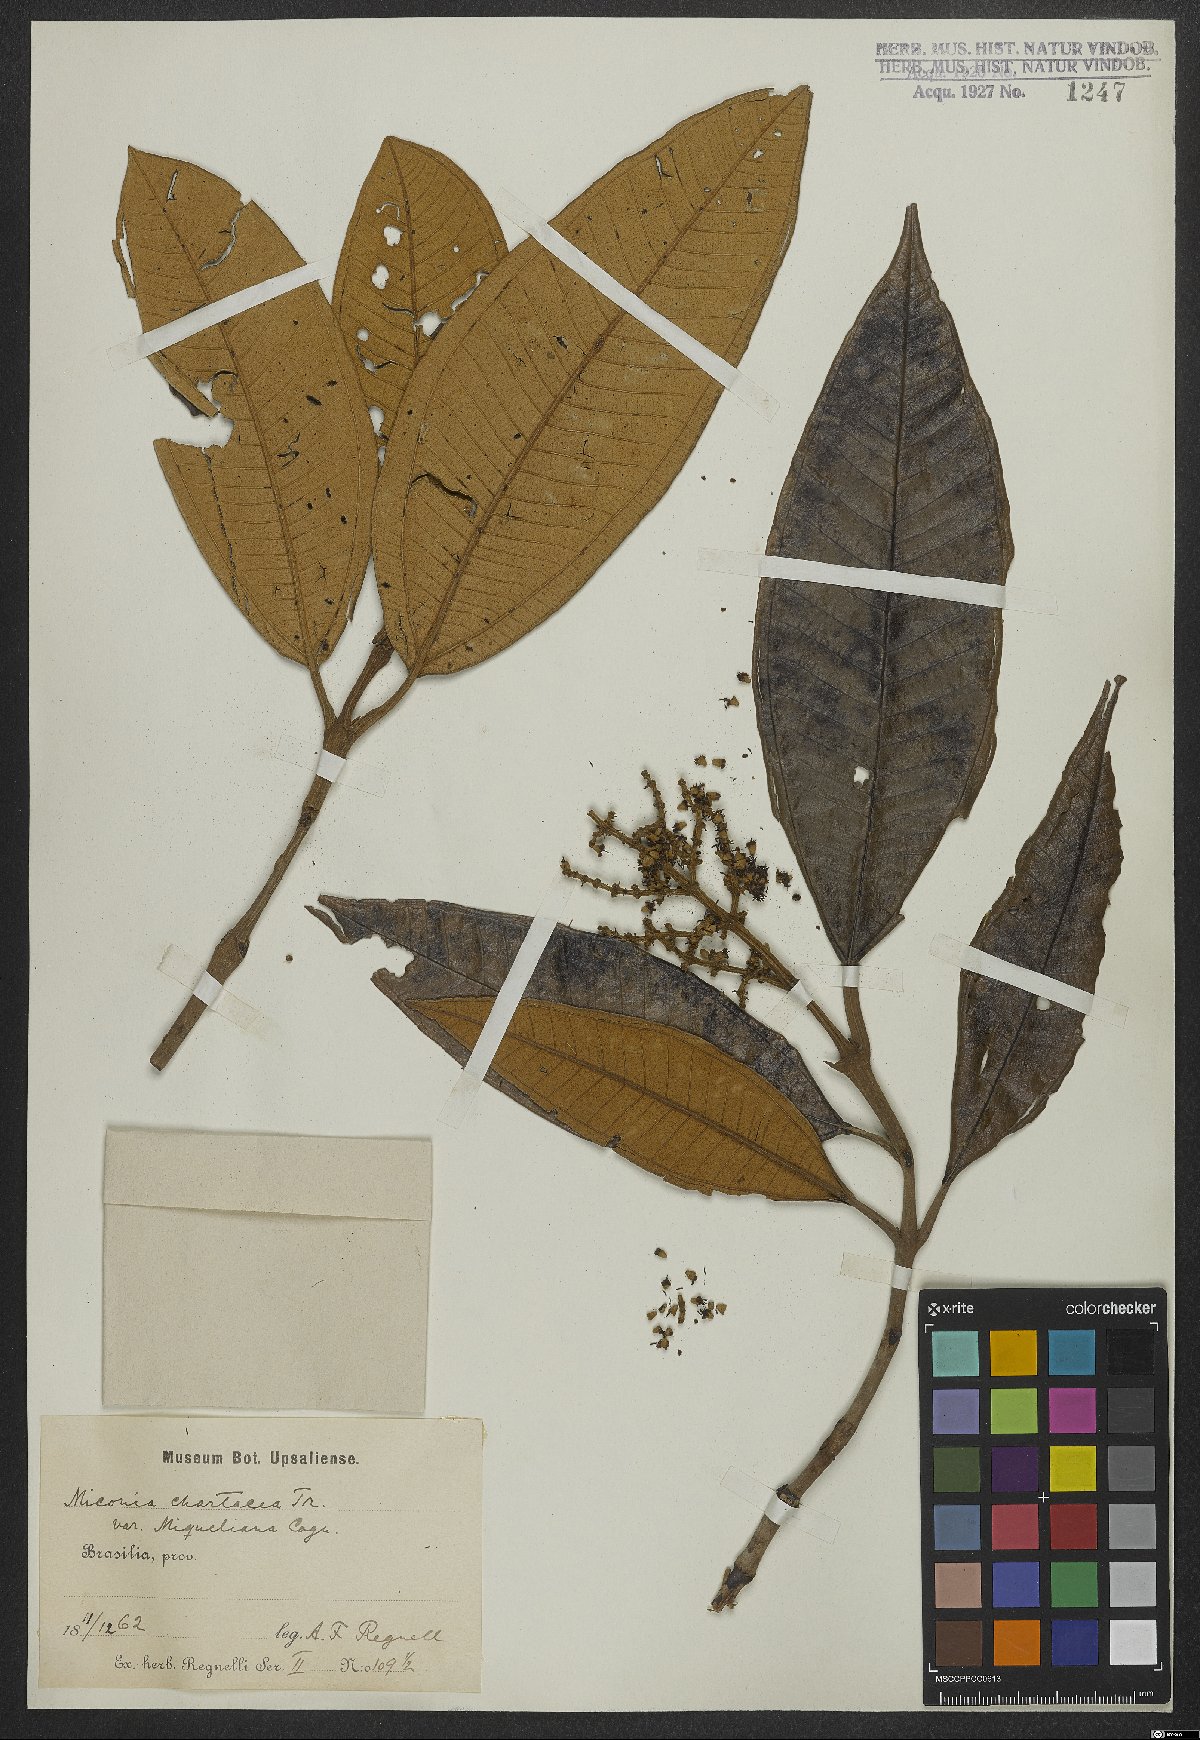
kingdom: Plantae
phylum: Tracheophyta
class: Magnoliopsida
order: Myrtales
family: Melastomataceae
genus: Miconia
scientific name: Miconia chartacea
